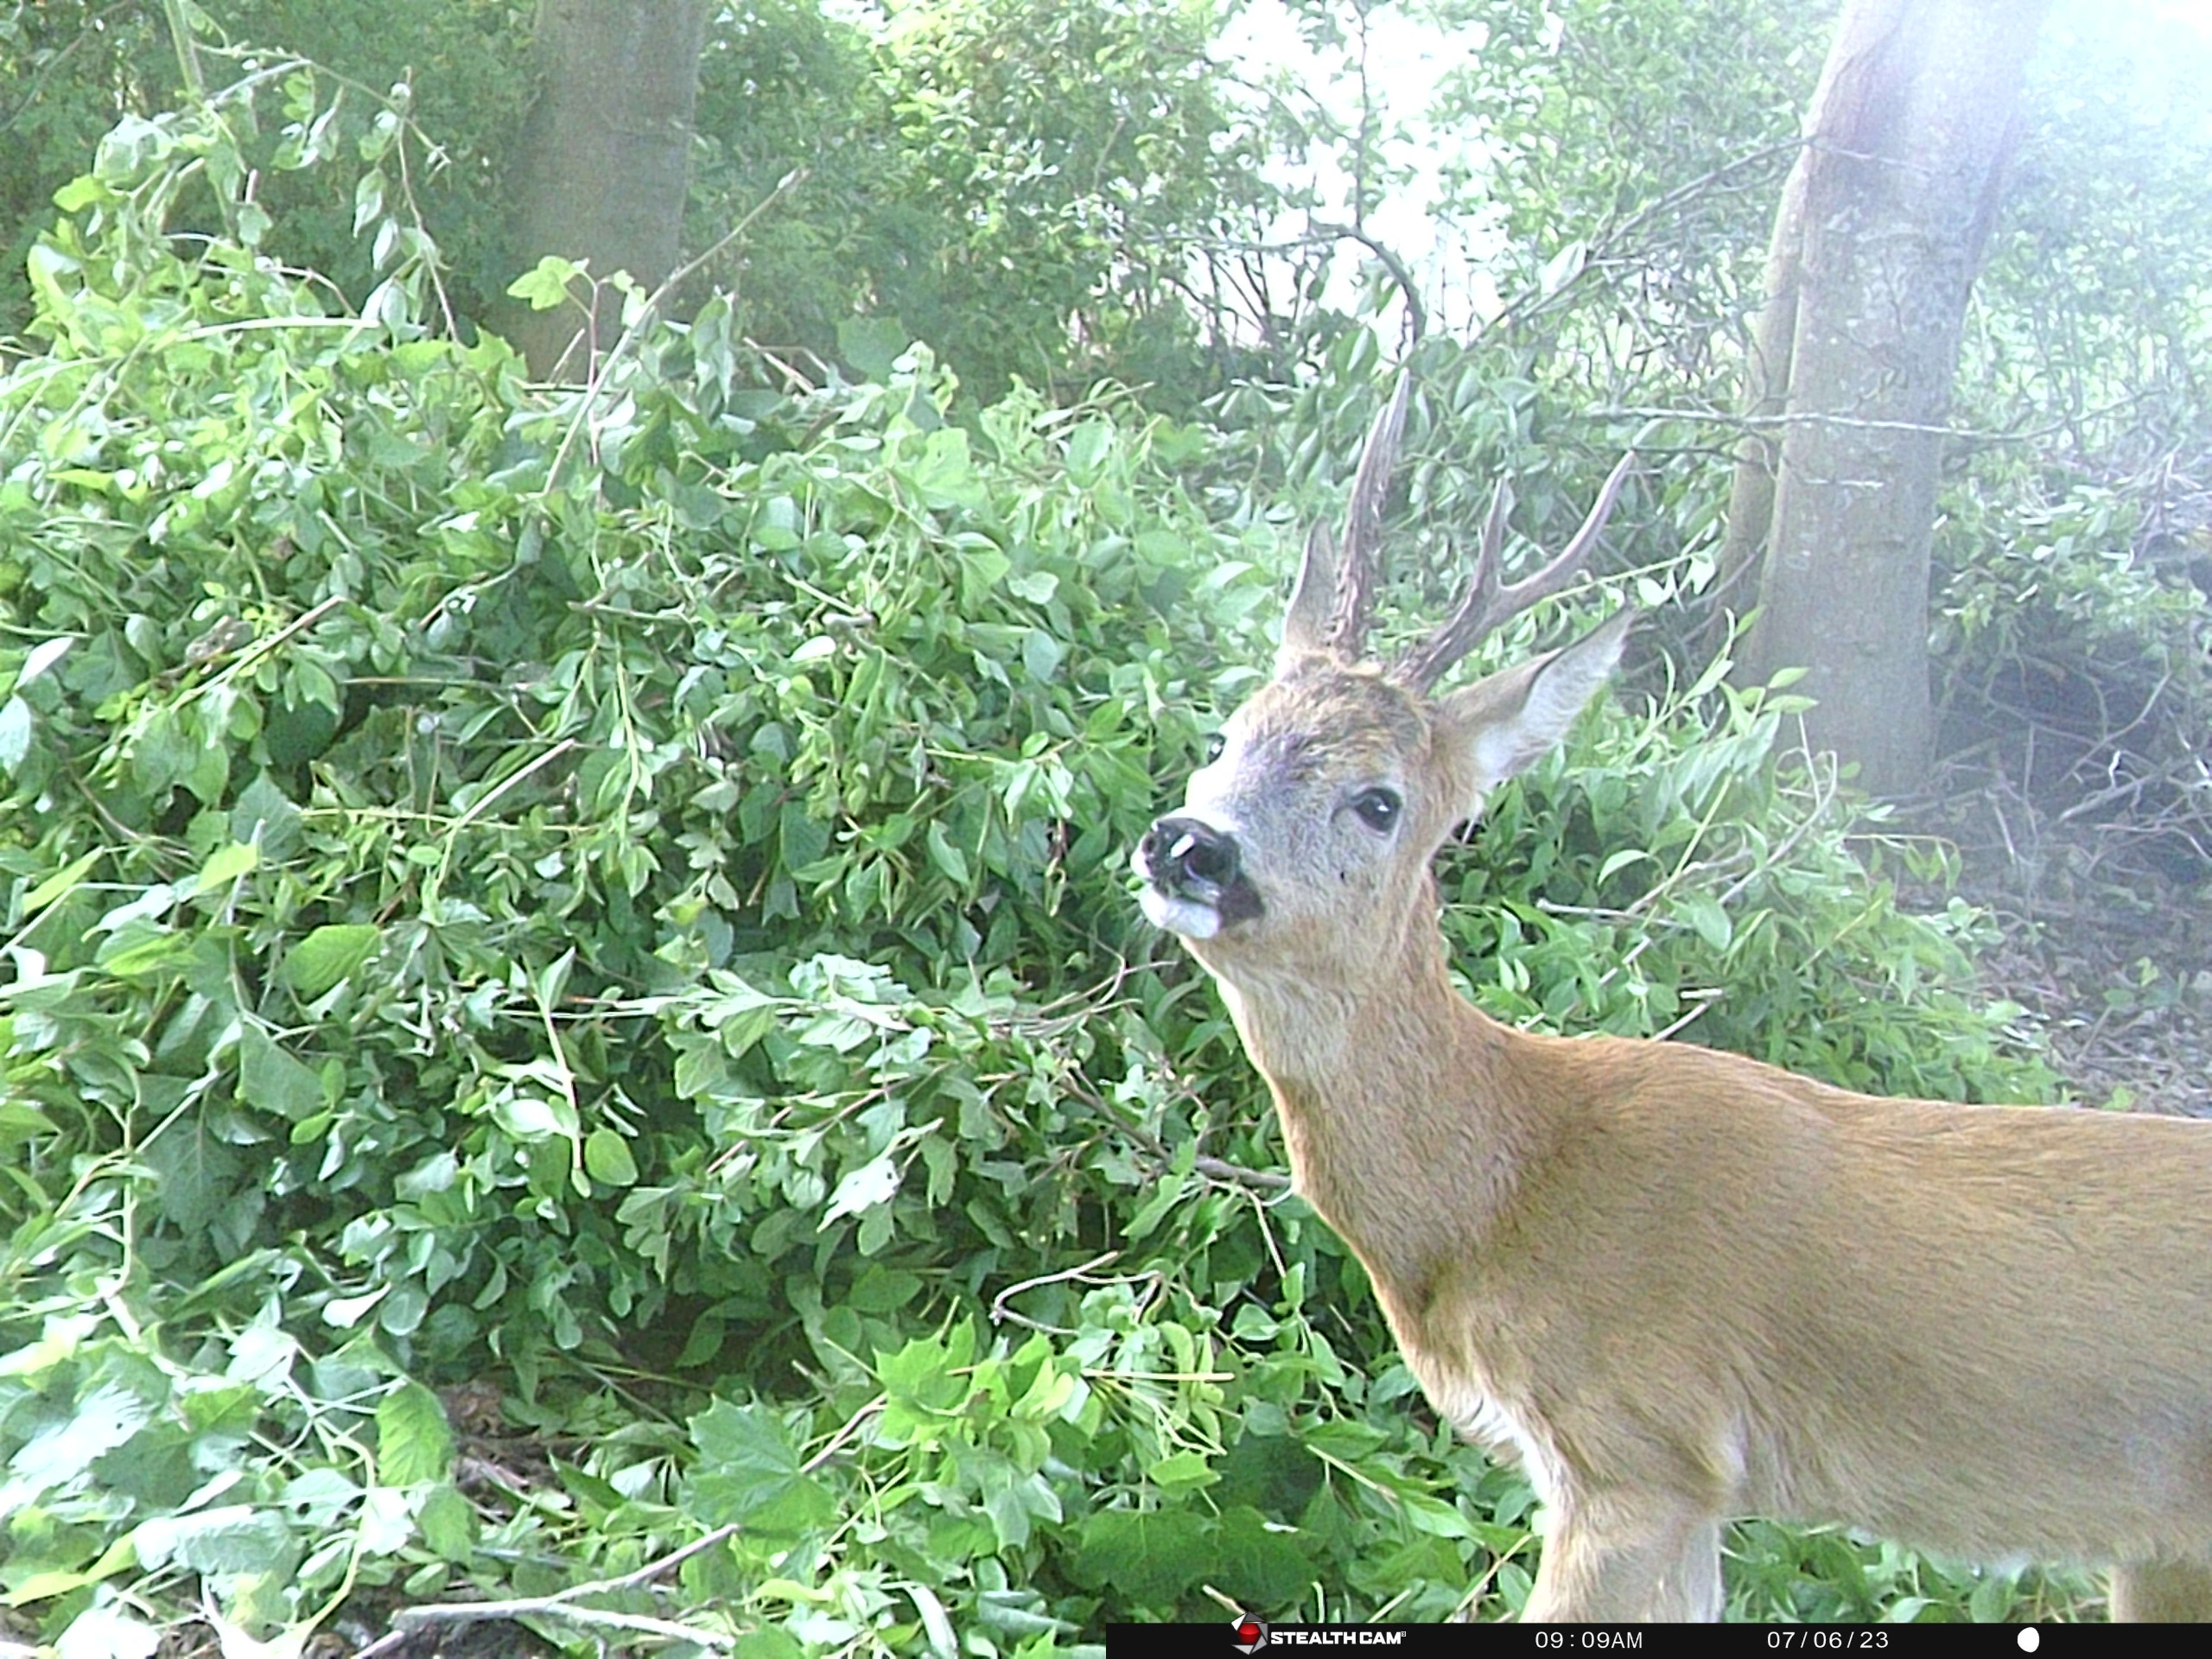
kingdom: Animalia
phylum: Chordata
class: Mammalia
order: Artiodactyla
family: Cervidae
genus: Capreolus
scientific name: Capreolus capreolus
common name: Rådyr
